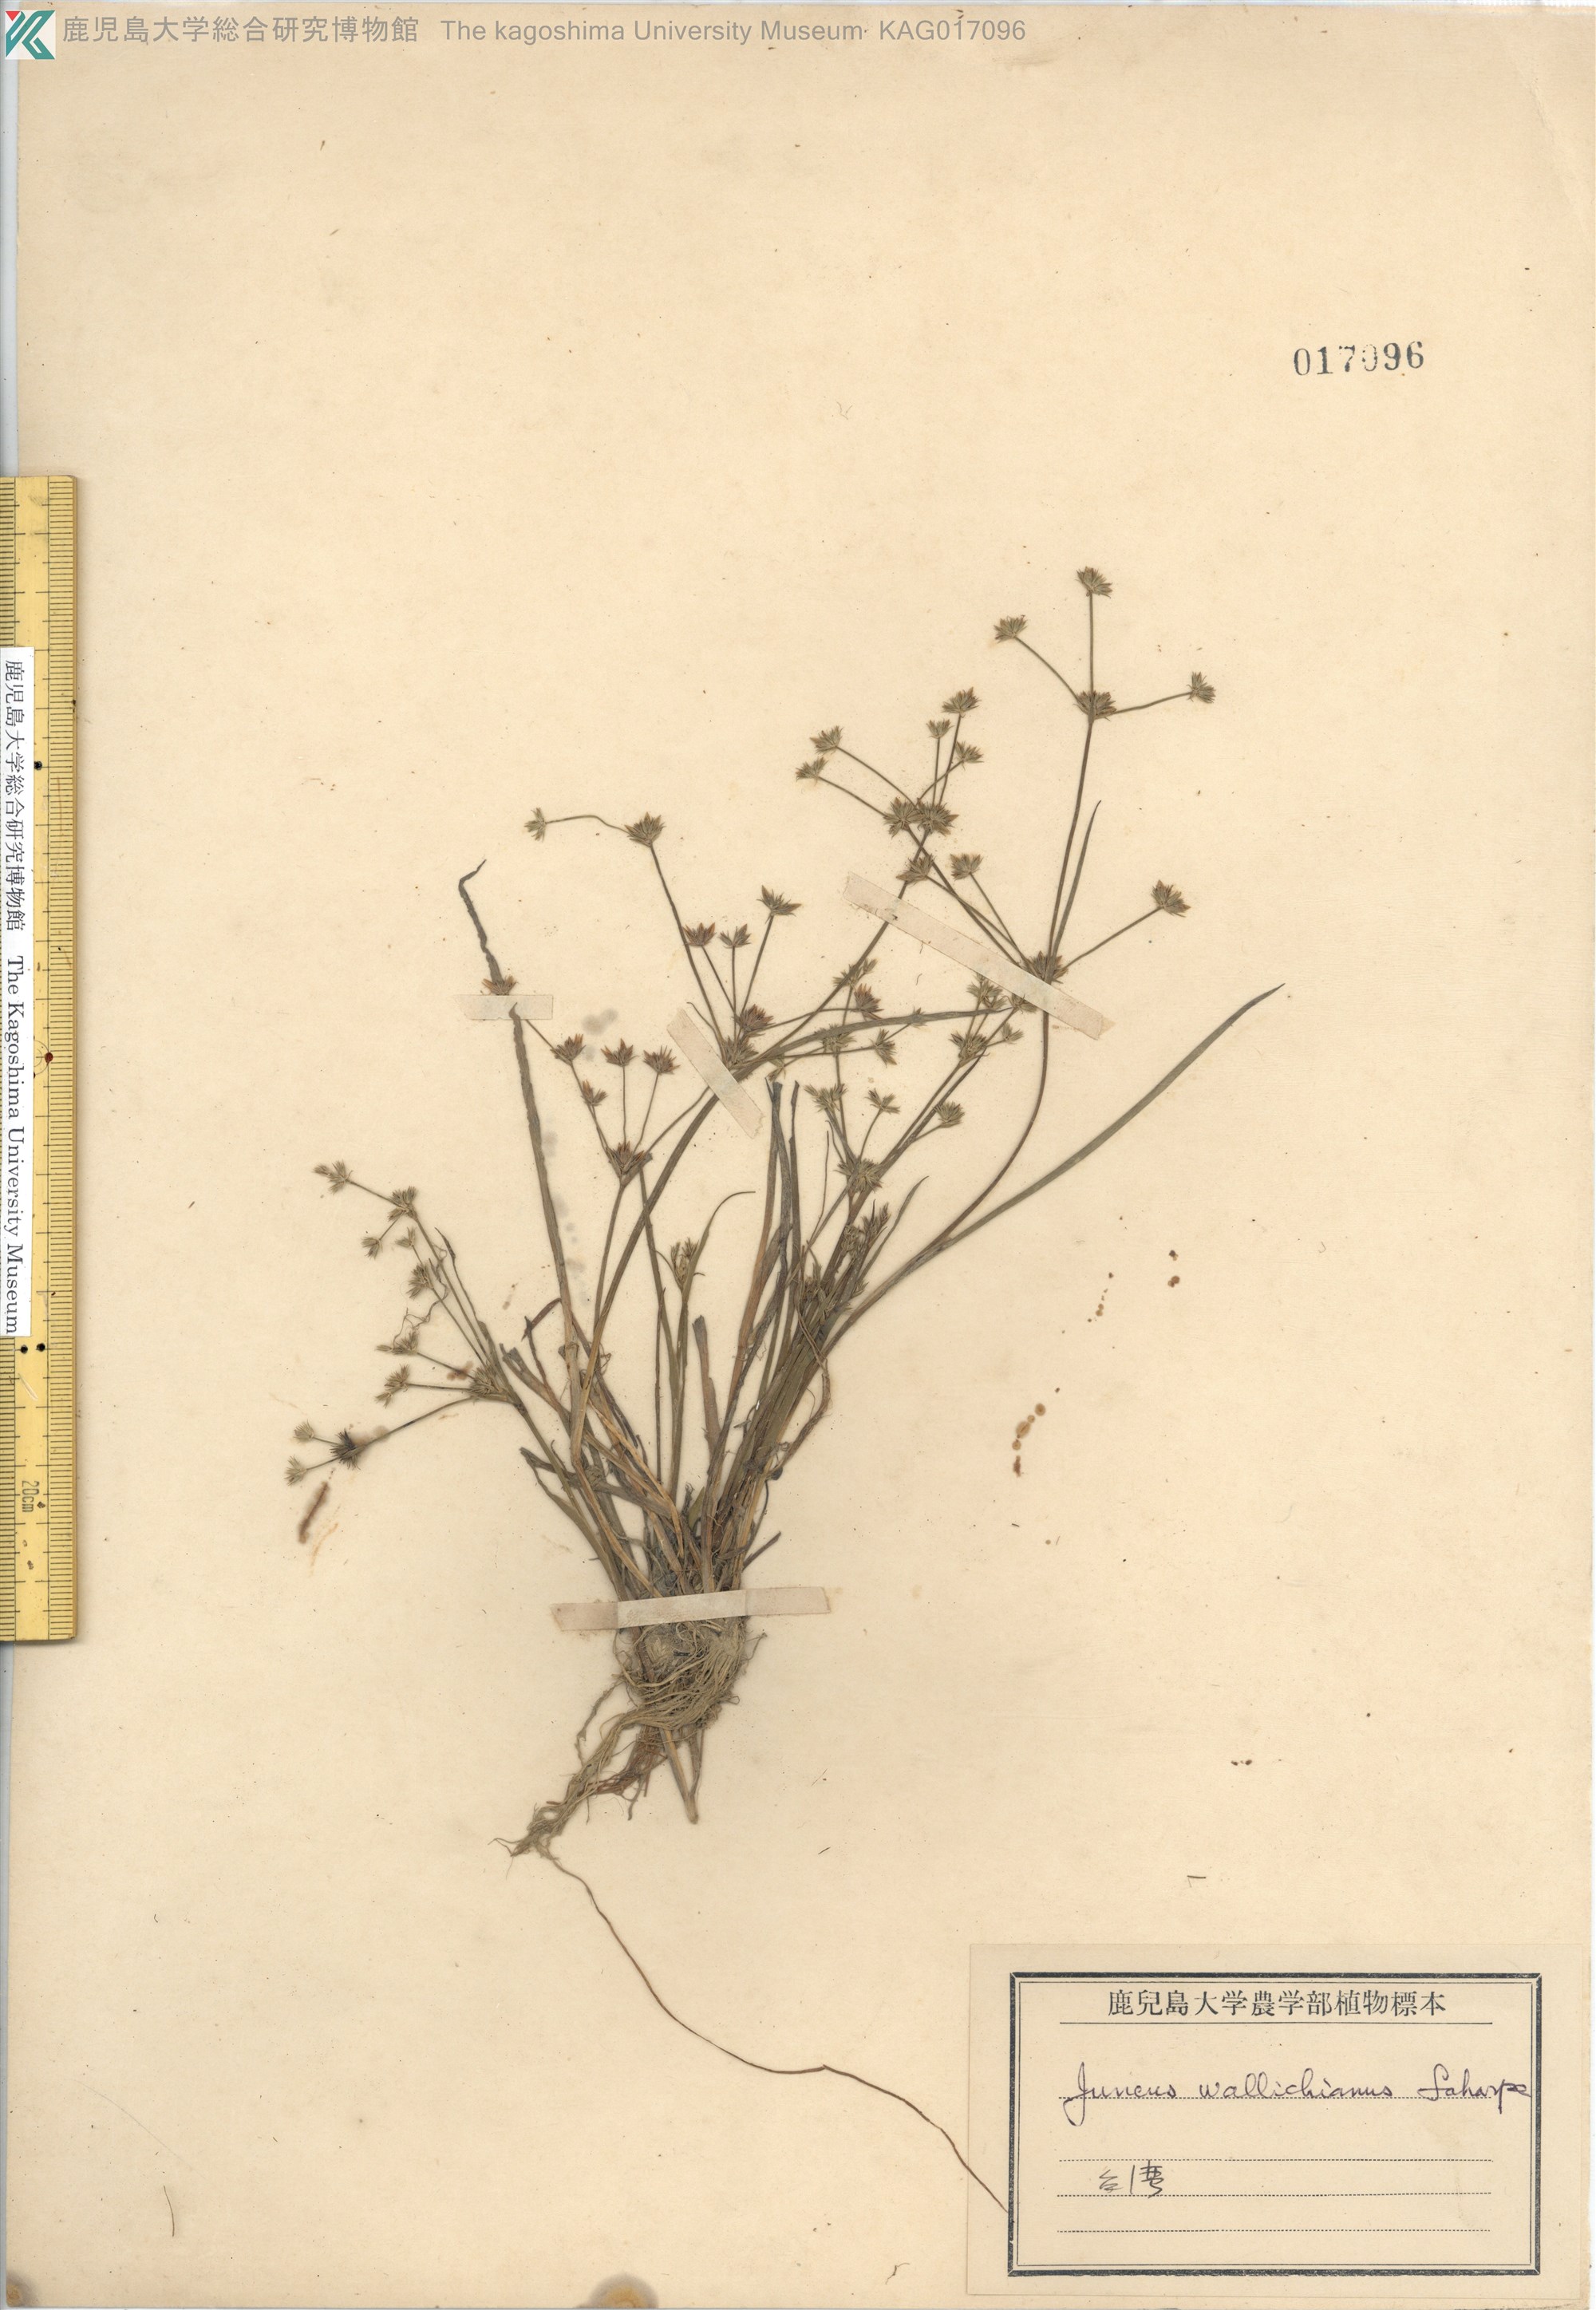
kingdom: Plantae
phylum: Tracheophyta
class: Liliopsida
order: Poales
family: Juncaceae
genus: Juncus
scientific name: Juncus prismatocarpus
